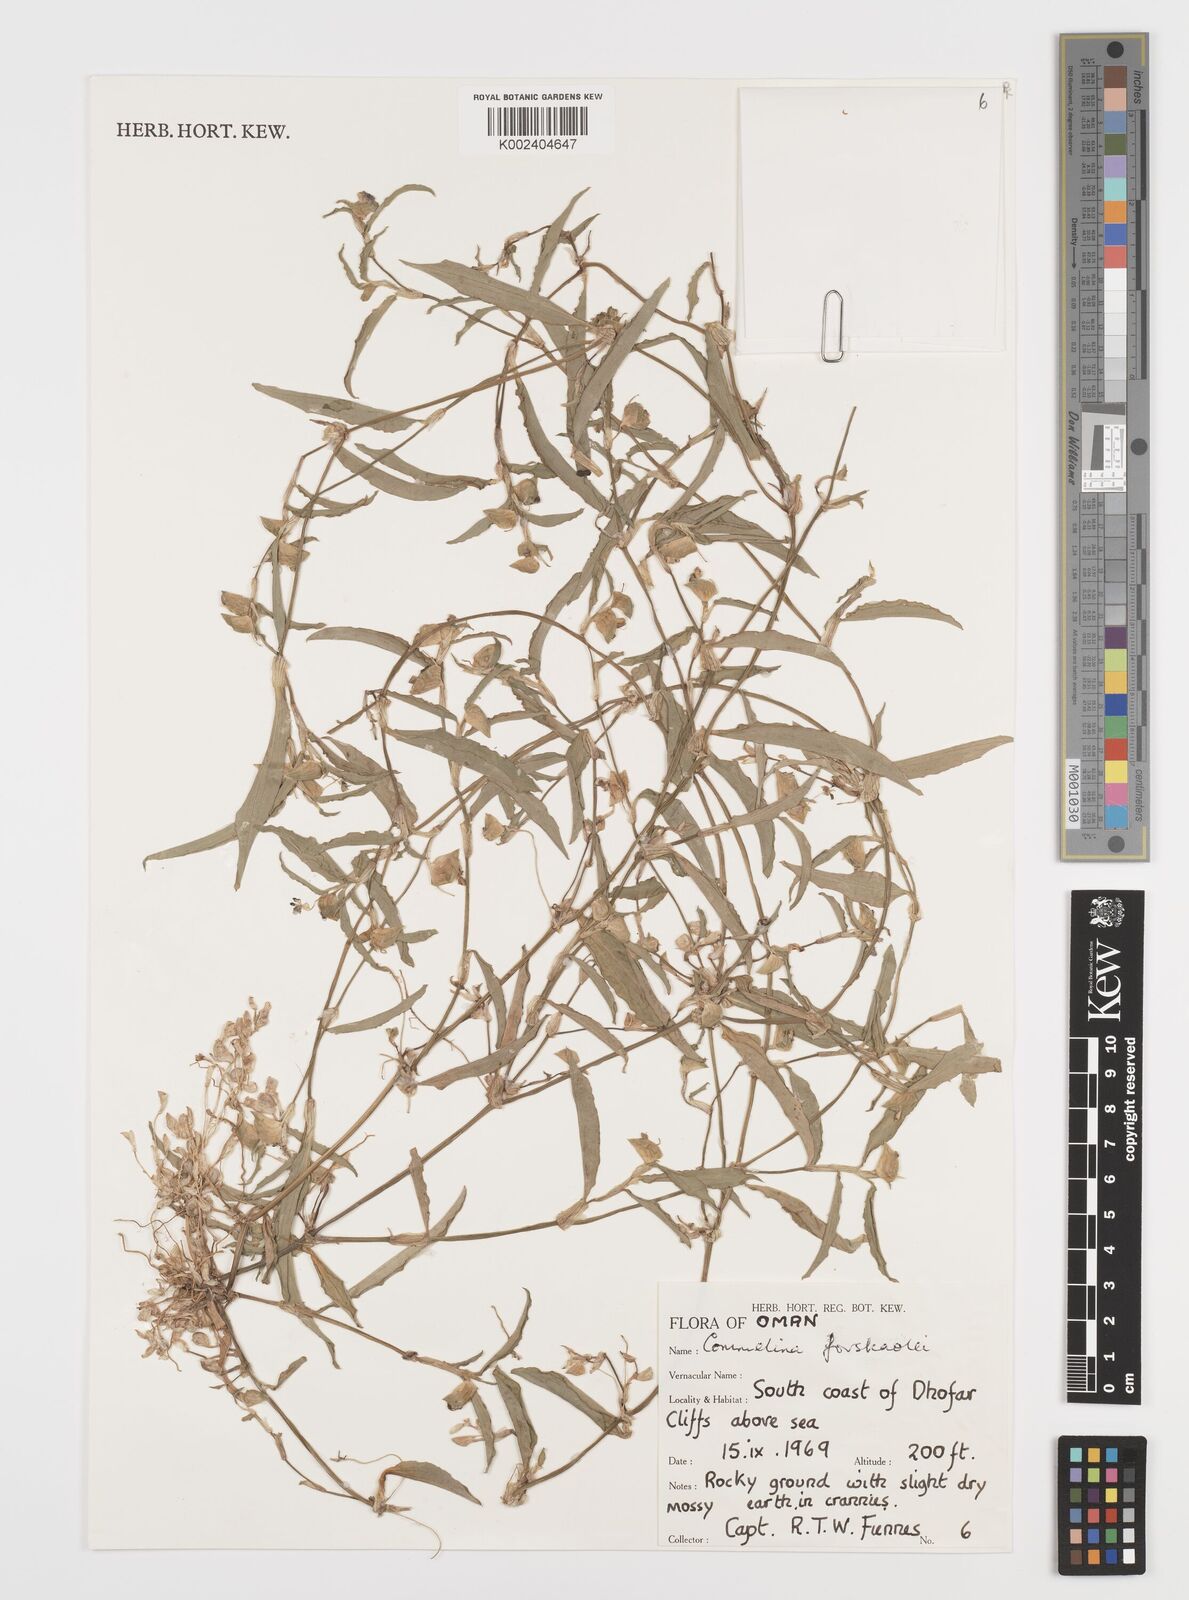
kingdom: Plantae
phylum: Tracheophyta
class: Liliopsida
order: Commelinales
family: Commelinaceae
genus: Commelina
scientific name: Commelina forskaolii
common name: Rat's ear
